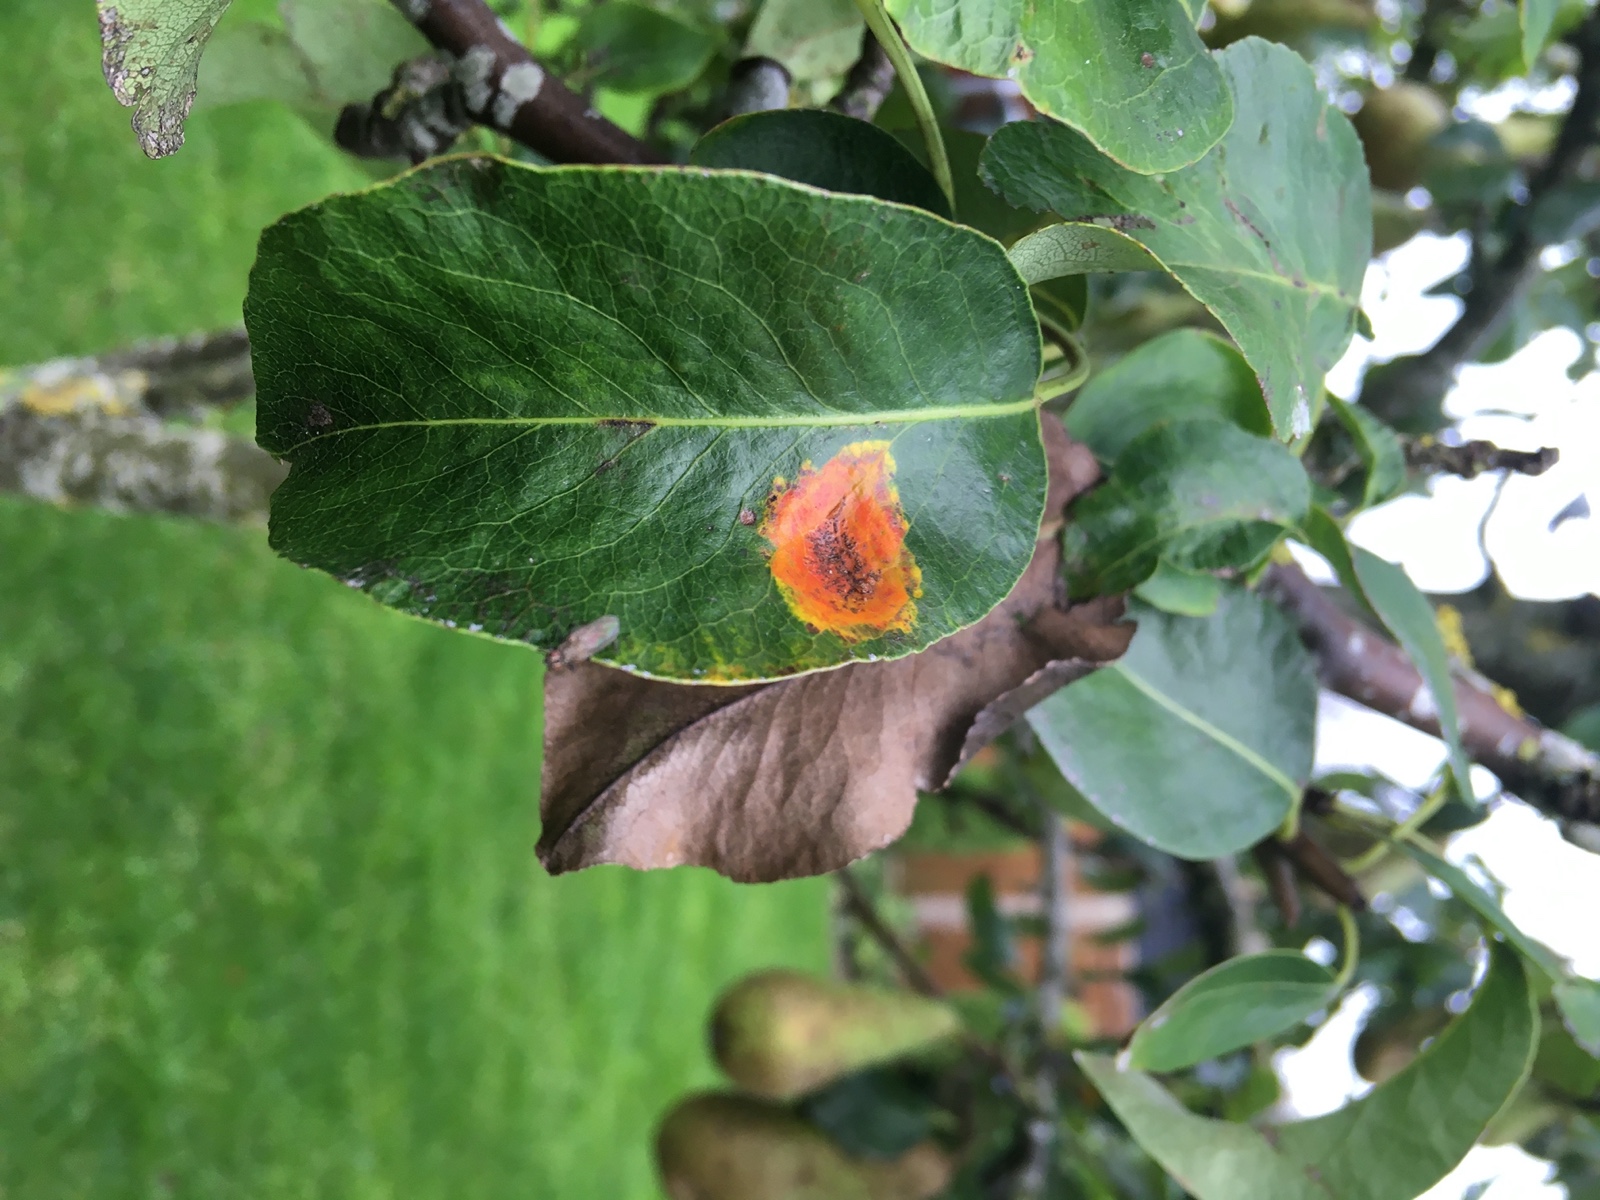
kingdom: Fungi
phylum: Basidiomycota
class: Pucciniomycetes
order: Pucciniales
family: Gymnosporangiaceae
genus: Gymnosporangium
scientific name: Gymnosporangium sabinae
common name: pæregitter-bævrerust
